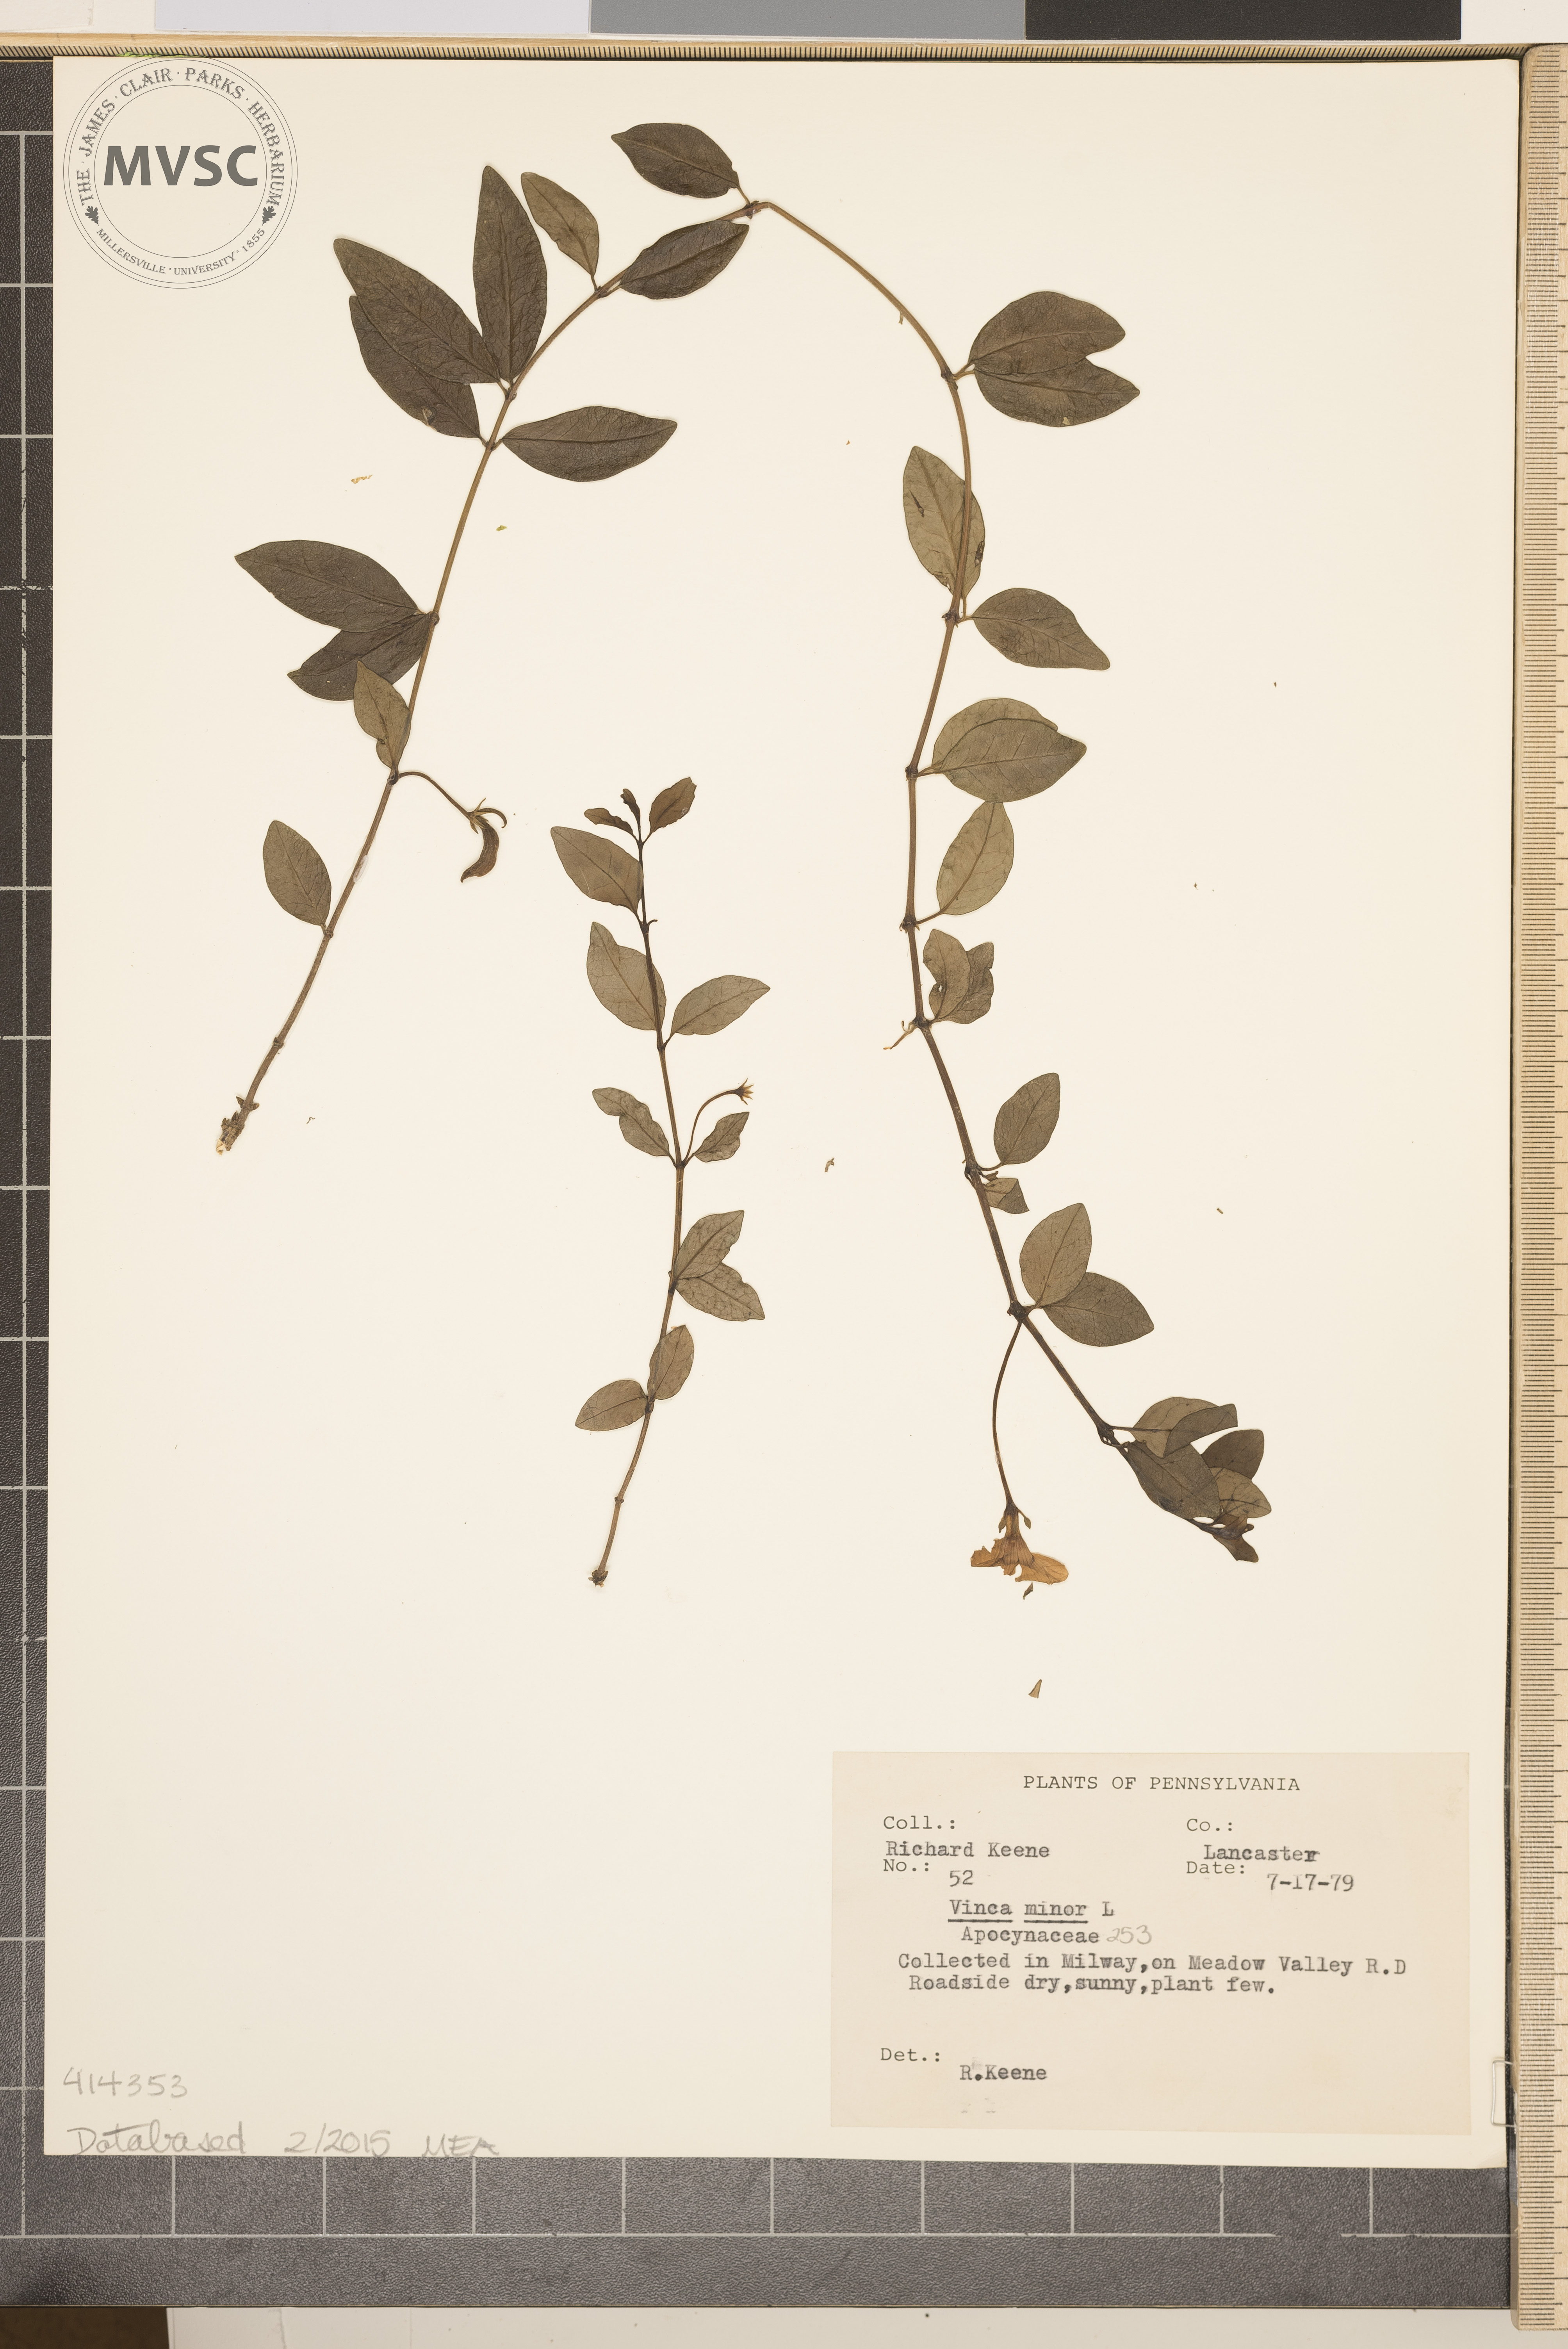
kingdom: Plantae
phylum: Tracheophyta
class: Magnoliopsida
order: Gentianales
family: Apocynaceae
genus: Vinca
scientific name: Vinca minor
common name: Lesser periwinkle
